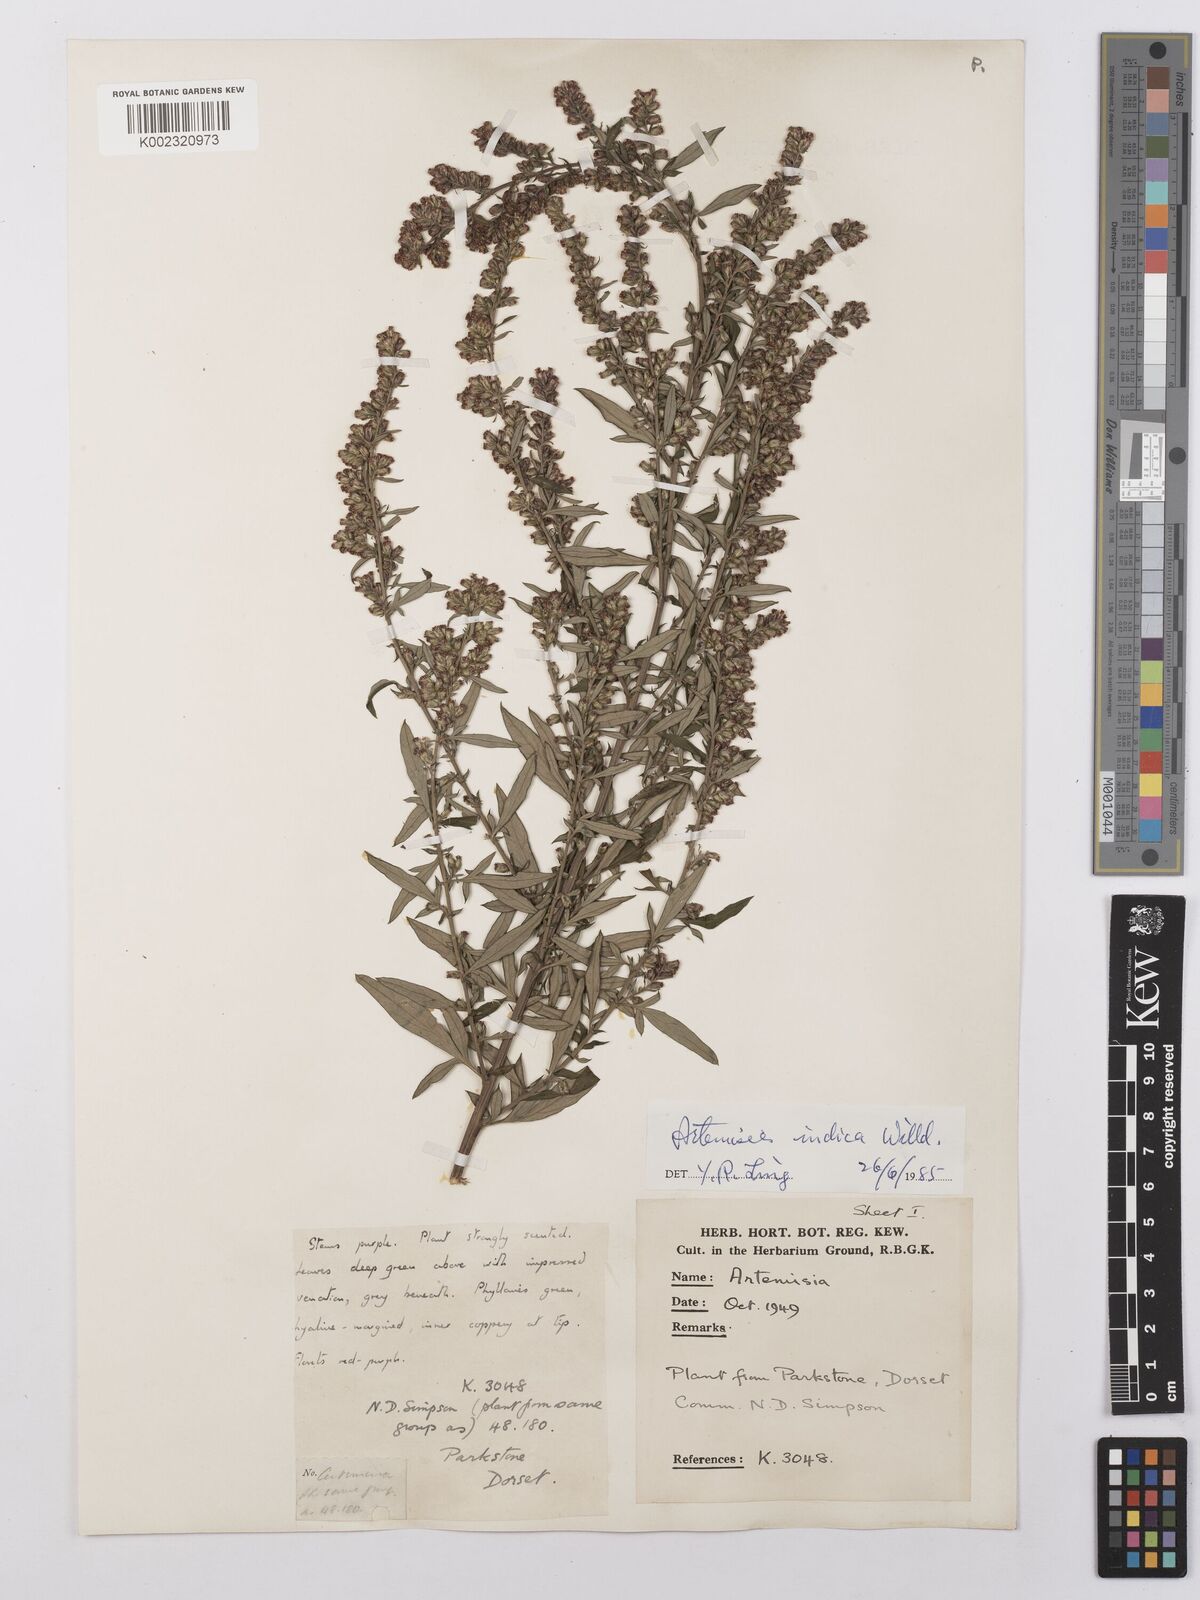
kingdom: Plantae
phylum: Tracheophyta
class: Magnoliopsida
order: Asterales
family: Asteraceae
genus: Artemisia
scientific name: Artemisia
